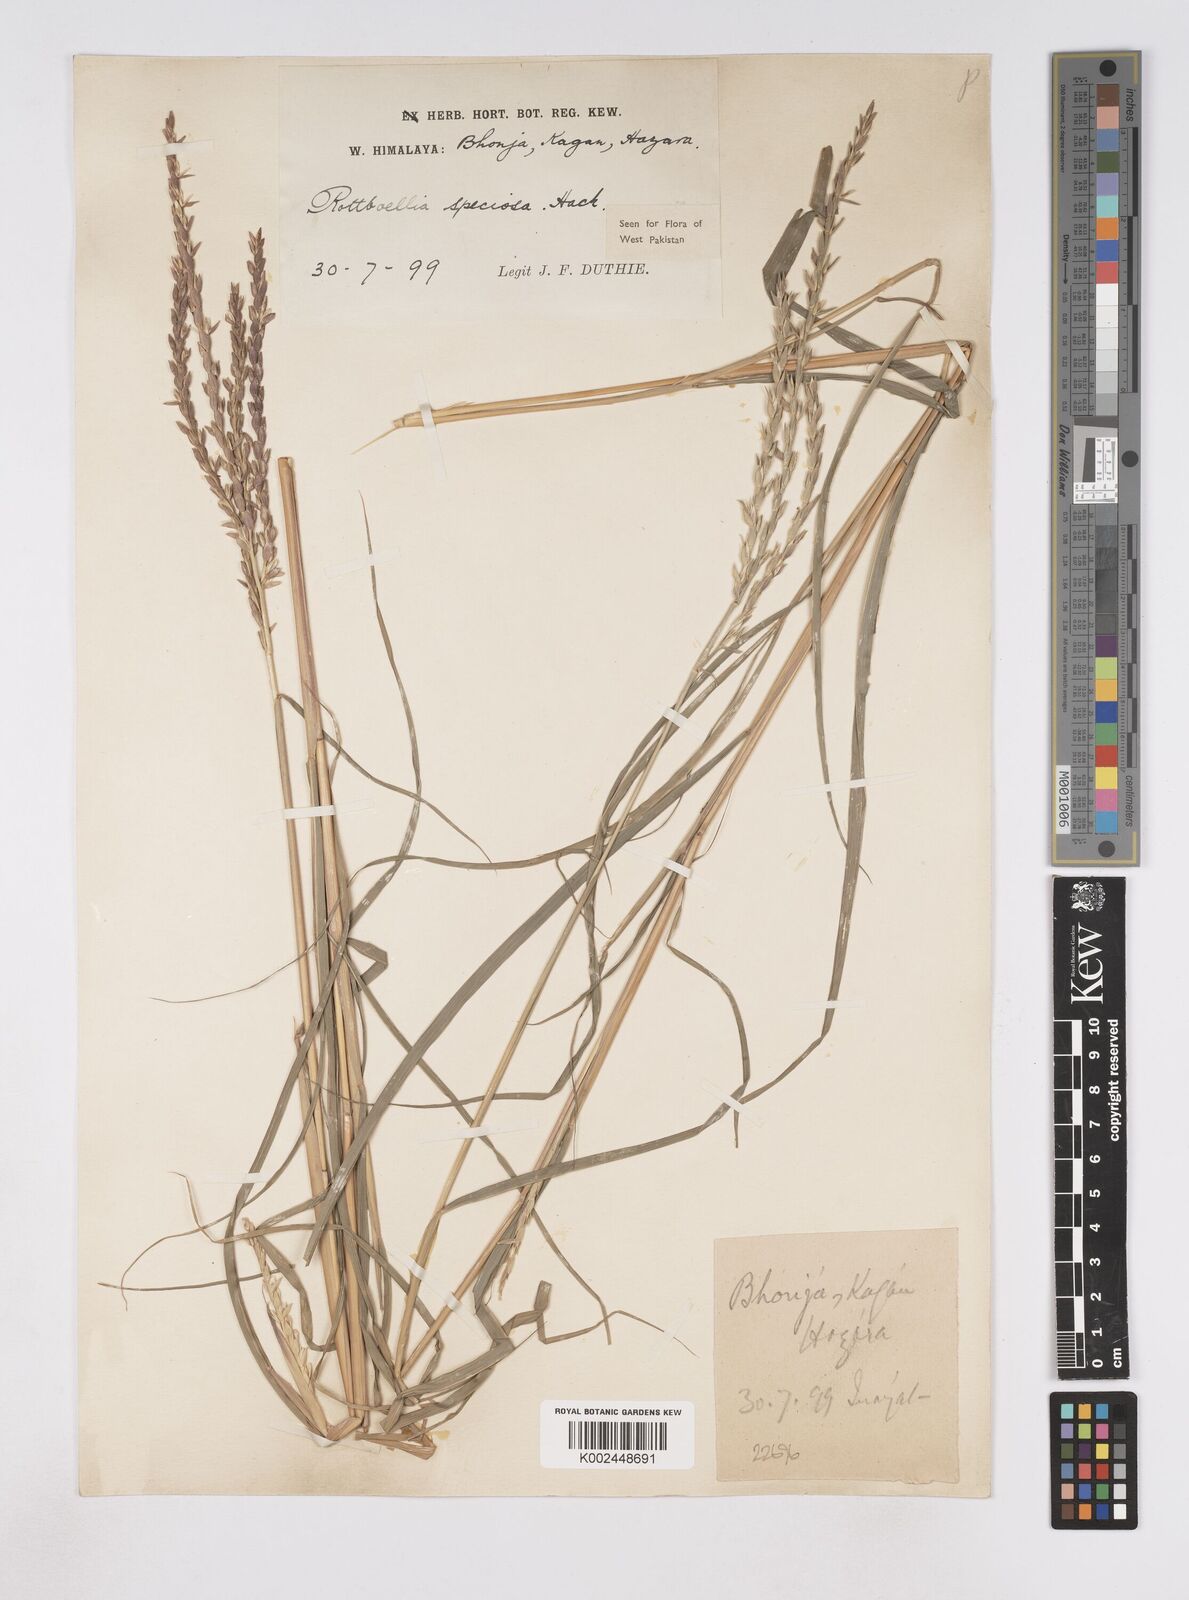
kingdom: Plantae
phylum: Tracheophyta
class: Liliopsida
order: Poales
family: Poaceae
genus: Phacelurus
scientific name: Phacelurus speciosus
